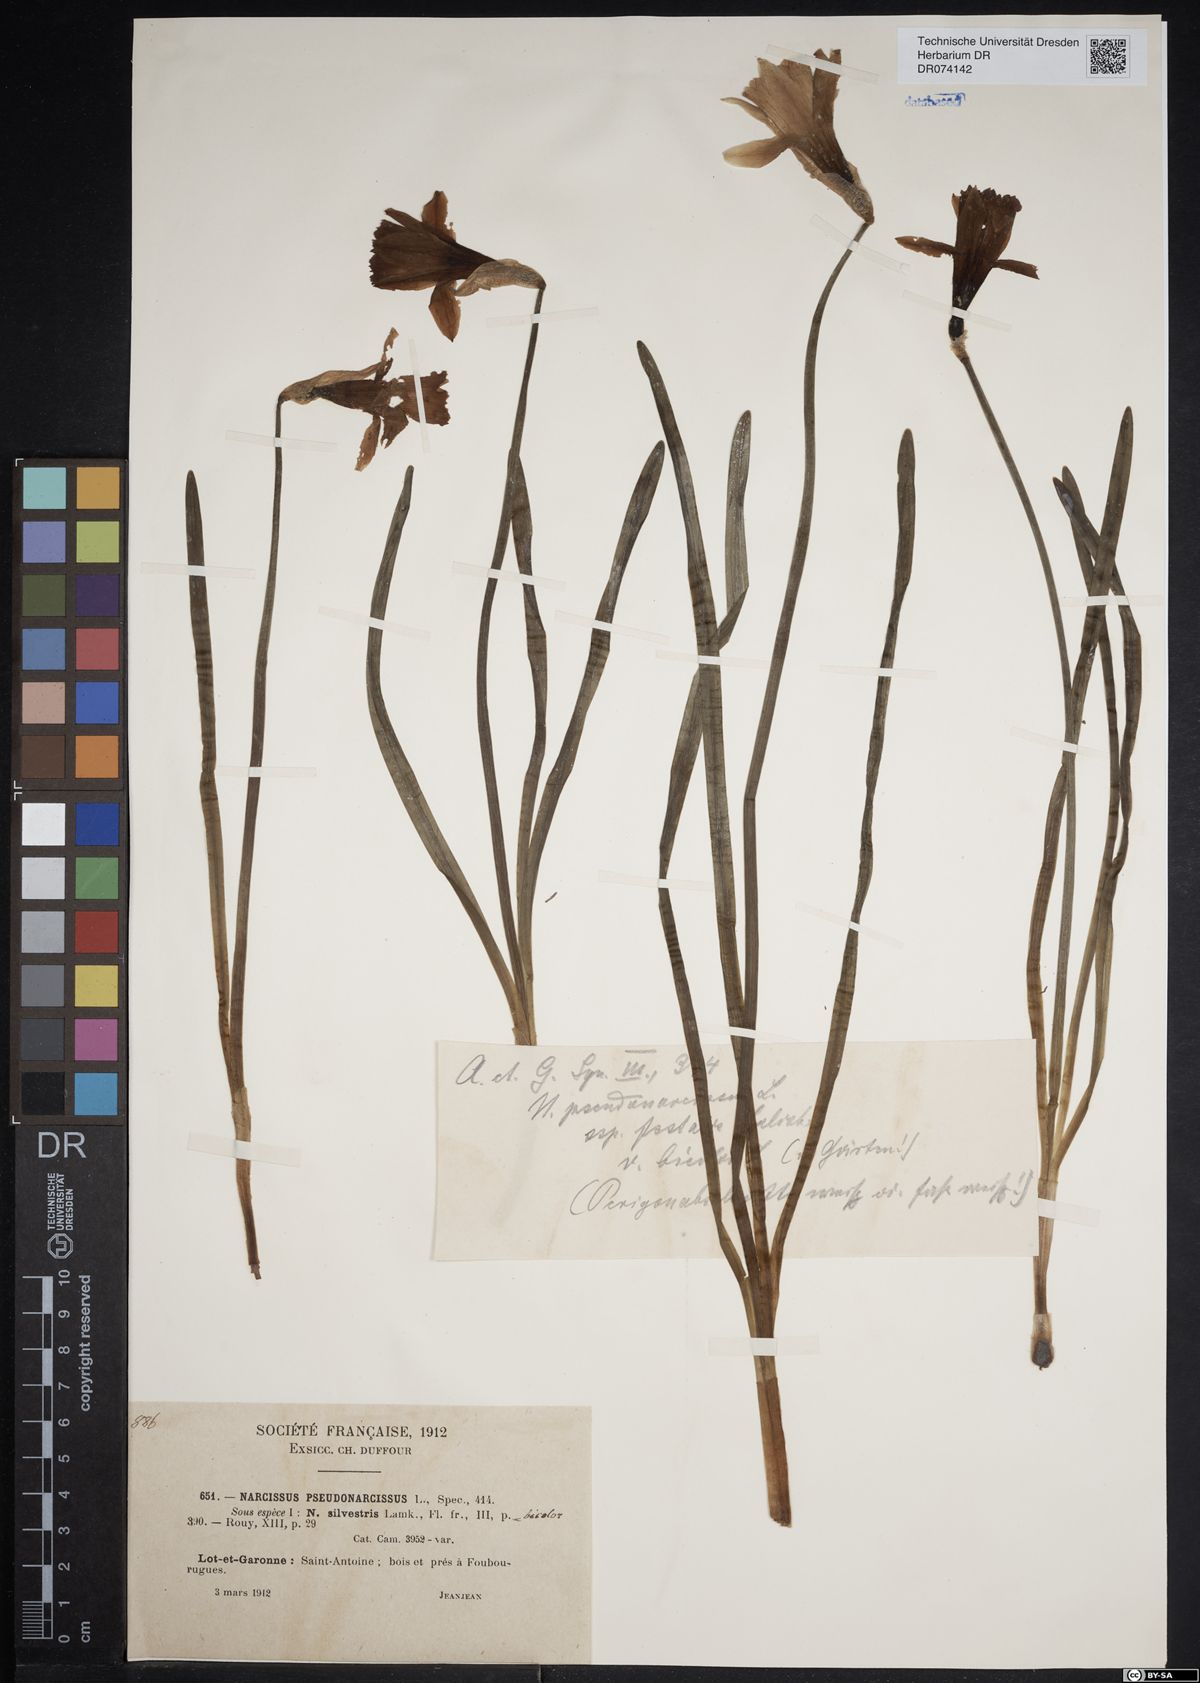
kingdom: Plantae
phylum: Tracheophyta
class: Liliopsida
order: Asparagales
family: Amaryllidaceae
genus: Narcissus
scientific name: Narcissus pseudonarcissus
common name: Daffodil
